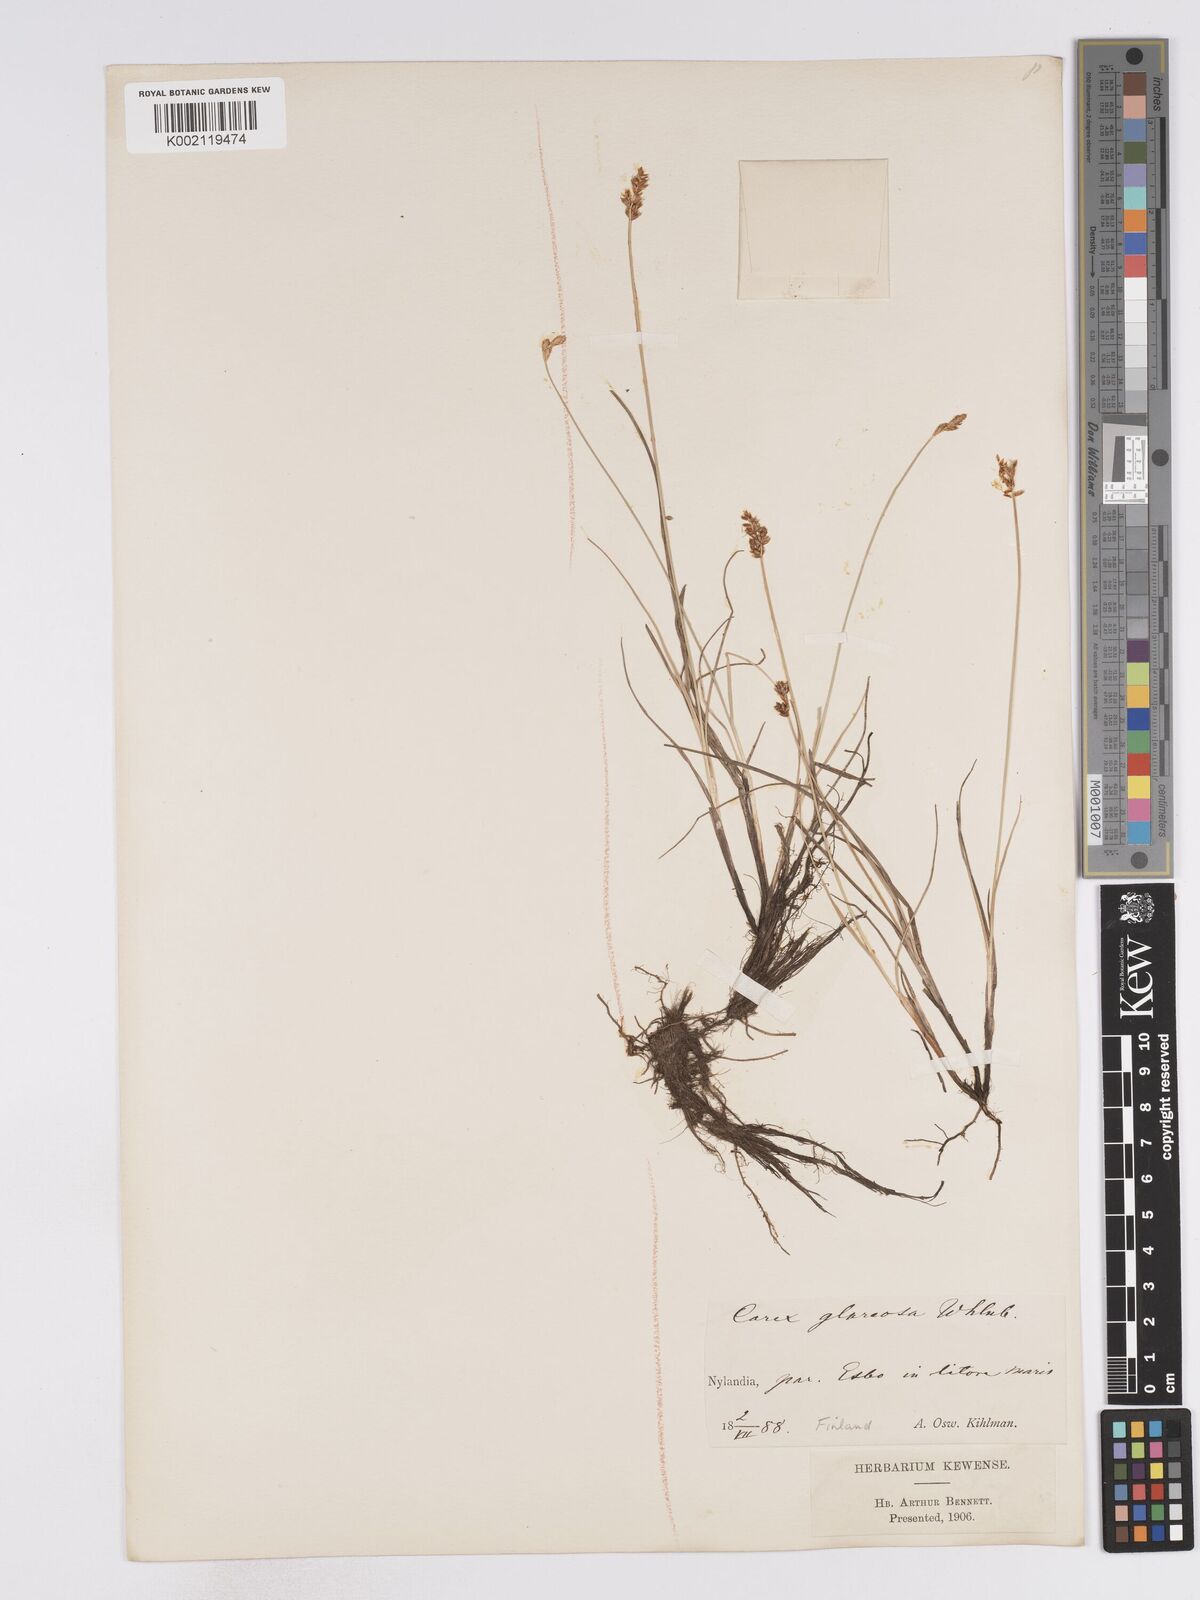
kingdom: Plantae
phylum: Tracheophyta
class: Liliopsida
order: Poales
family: Cyperaceae
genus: Carex
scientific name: Carex glareosa
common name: Clustered sedge
